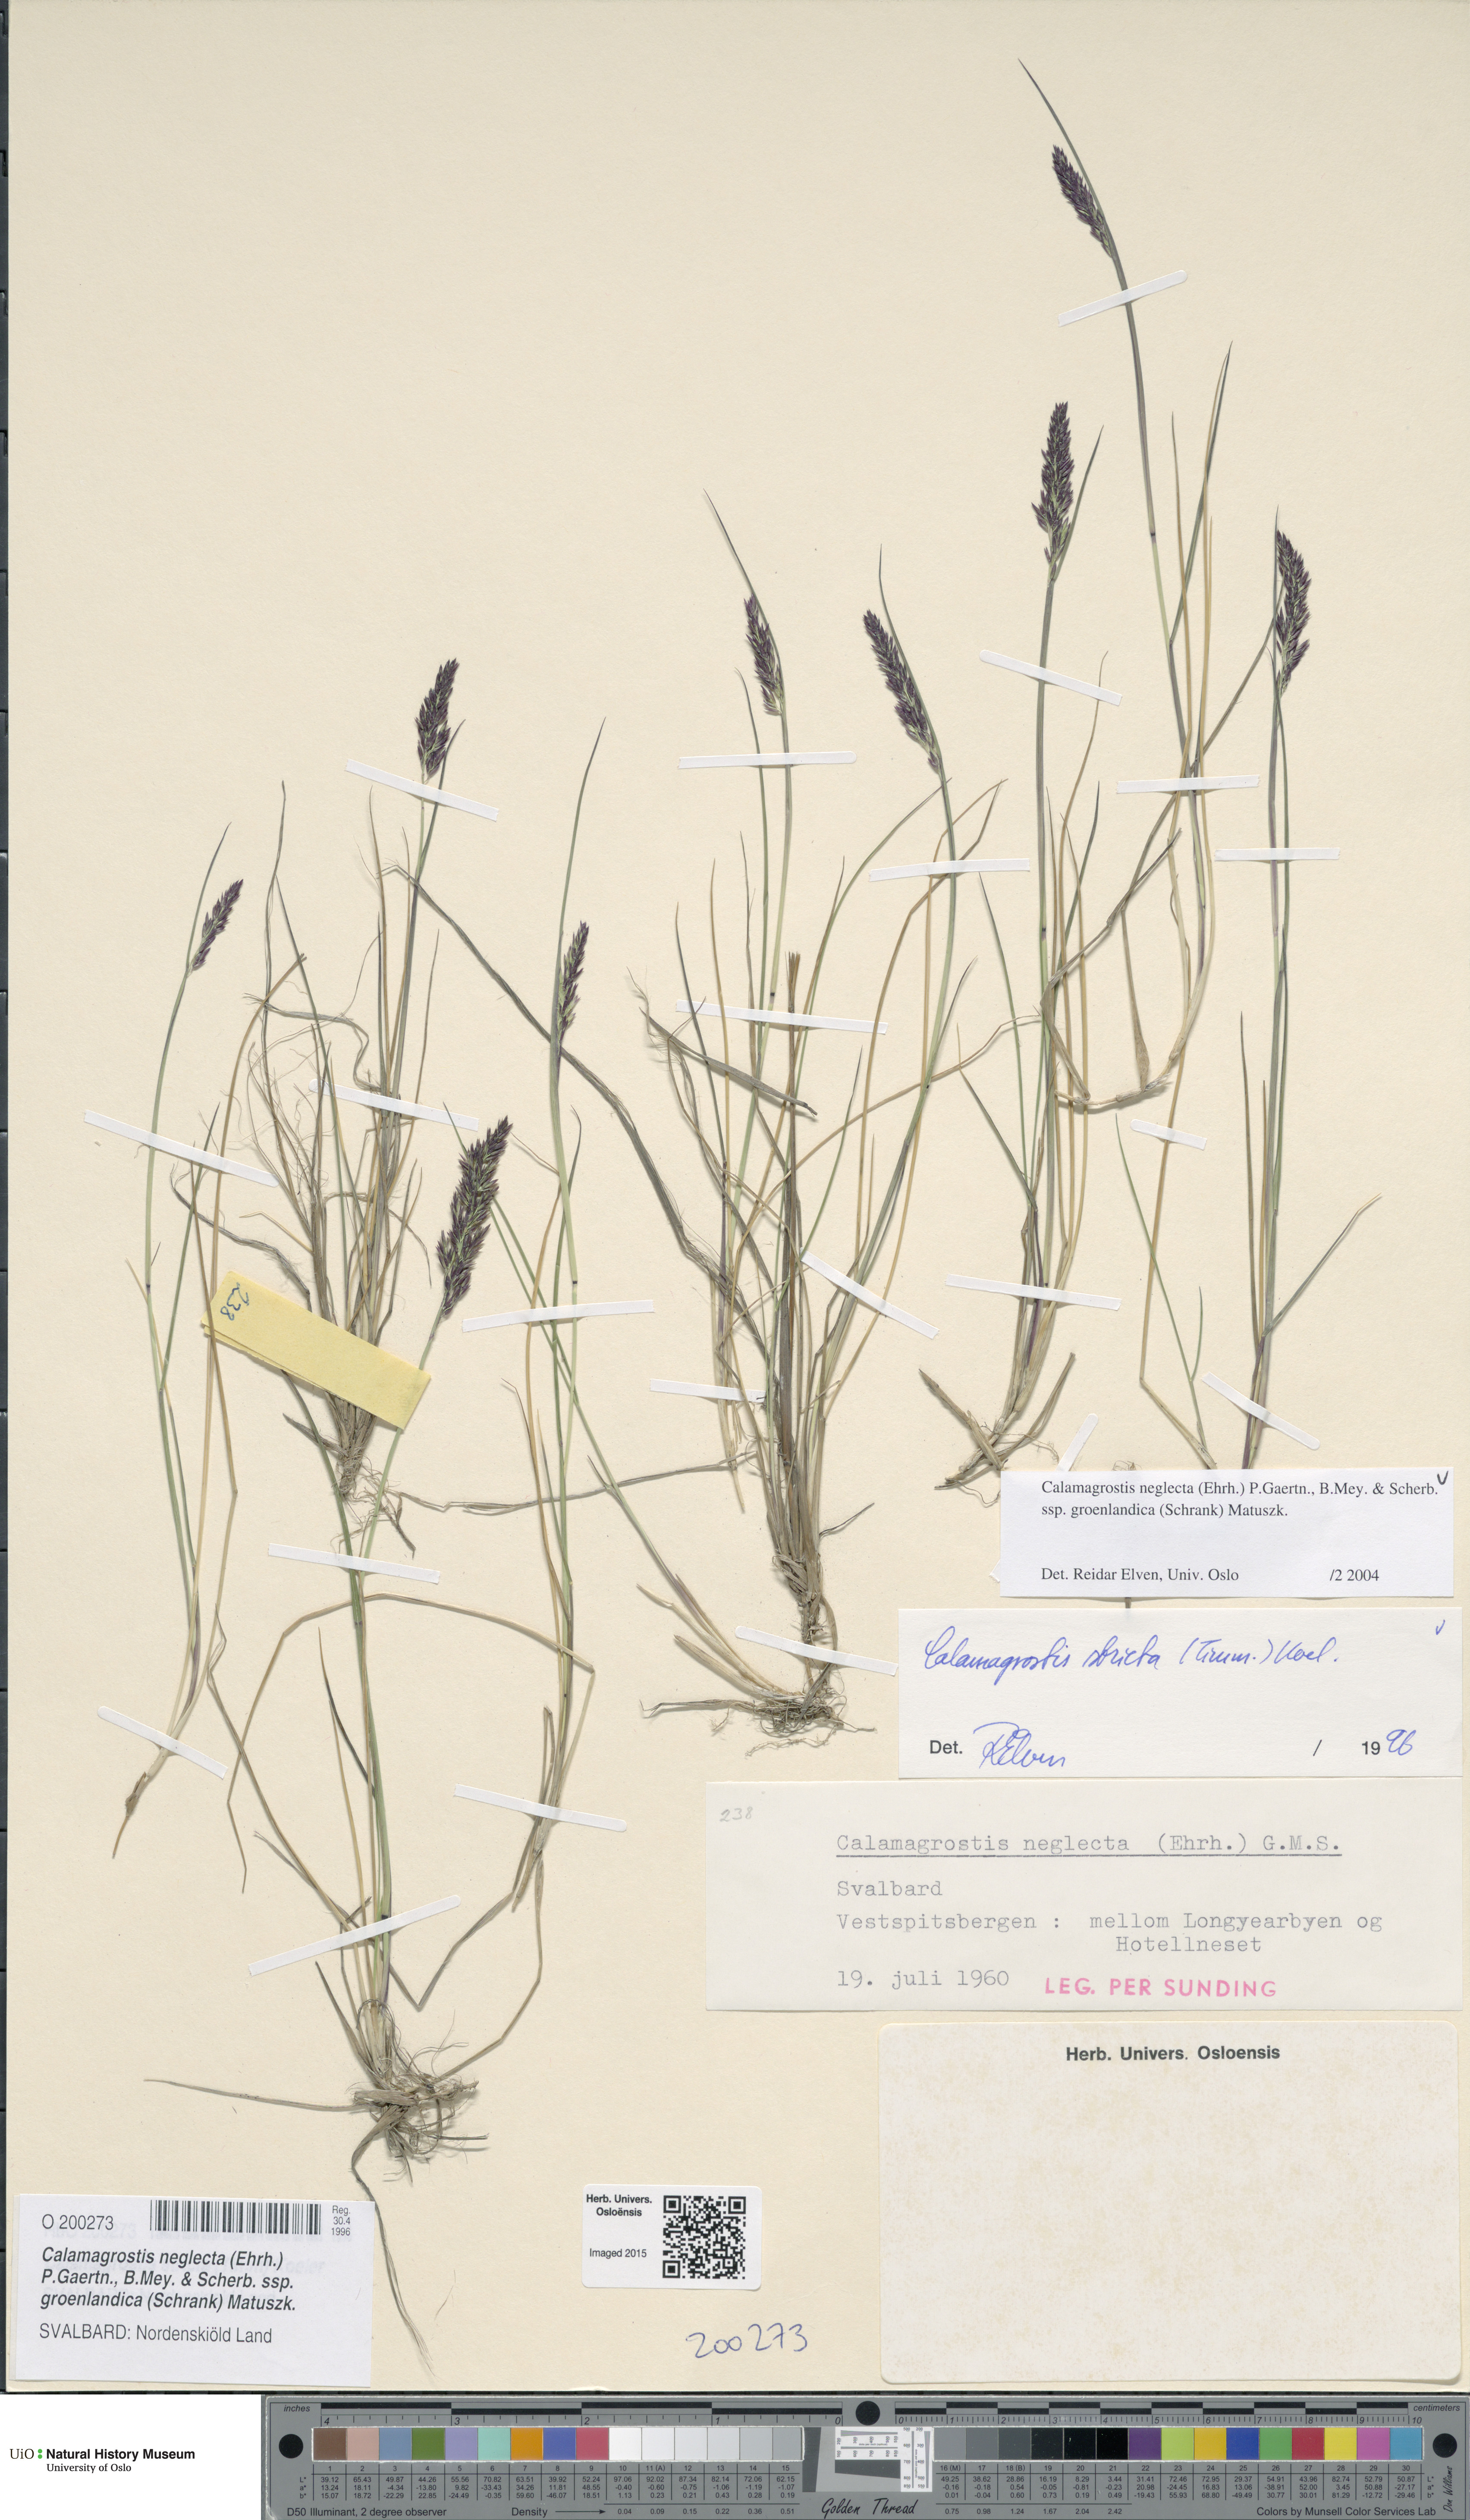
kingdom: Plantae
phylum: Tracheophyta
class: Liliopsida
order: Poales
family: Poaceae
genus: Calamagrostis
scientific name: Calamagrostis stricta
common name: Narrow small-reed
